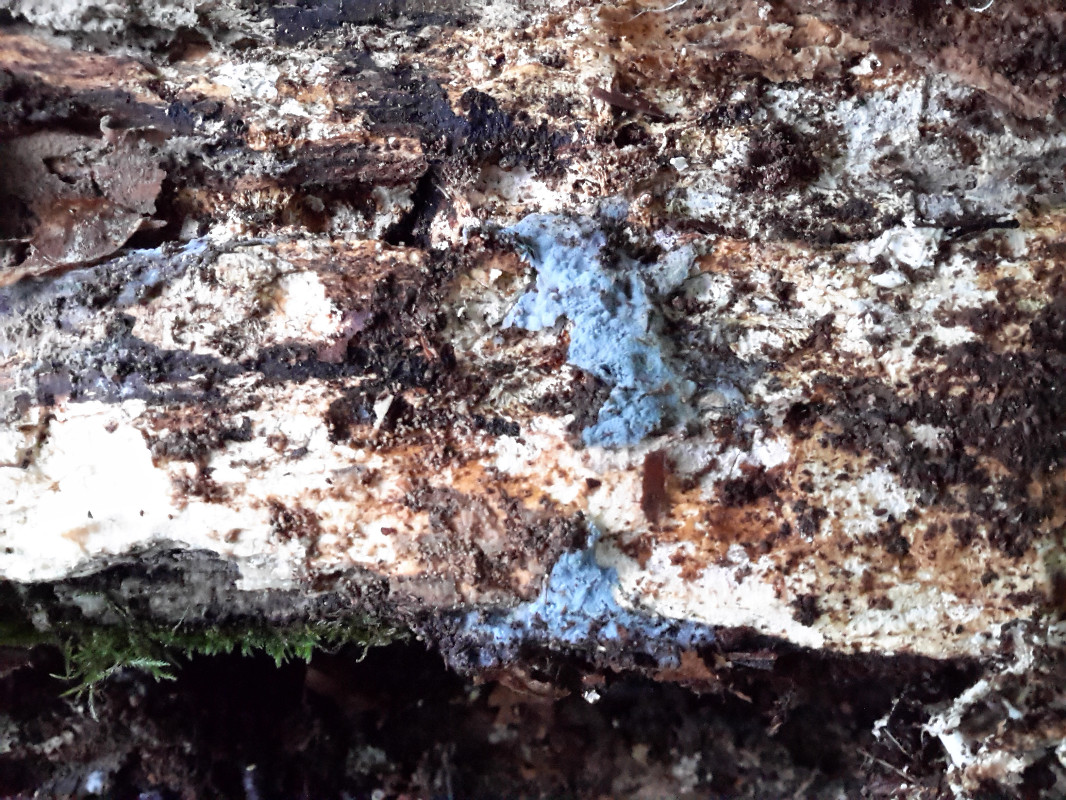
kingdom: Fungi
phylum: Basidiomycota
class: Agaricomycetes
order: Atheliales
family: Atheliaceae
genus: Byssocorticium
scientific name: Byssocorticium atrovirens
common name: blå førnehinde
